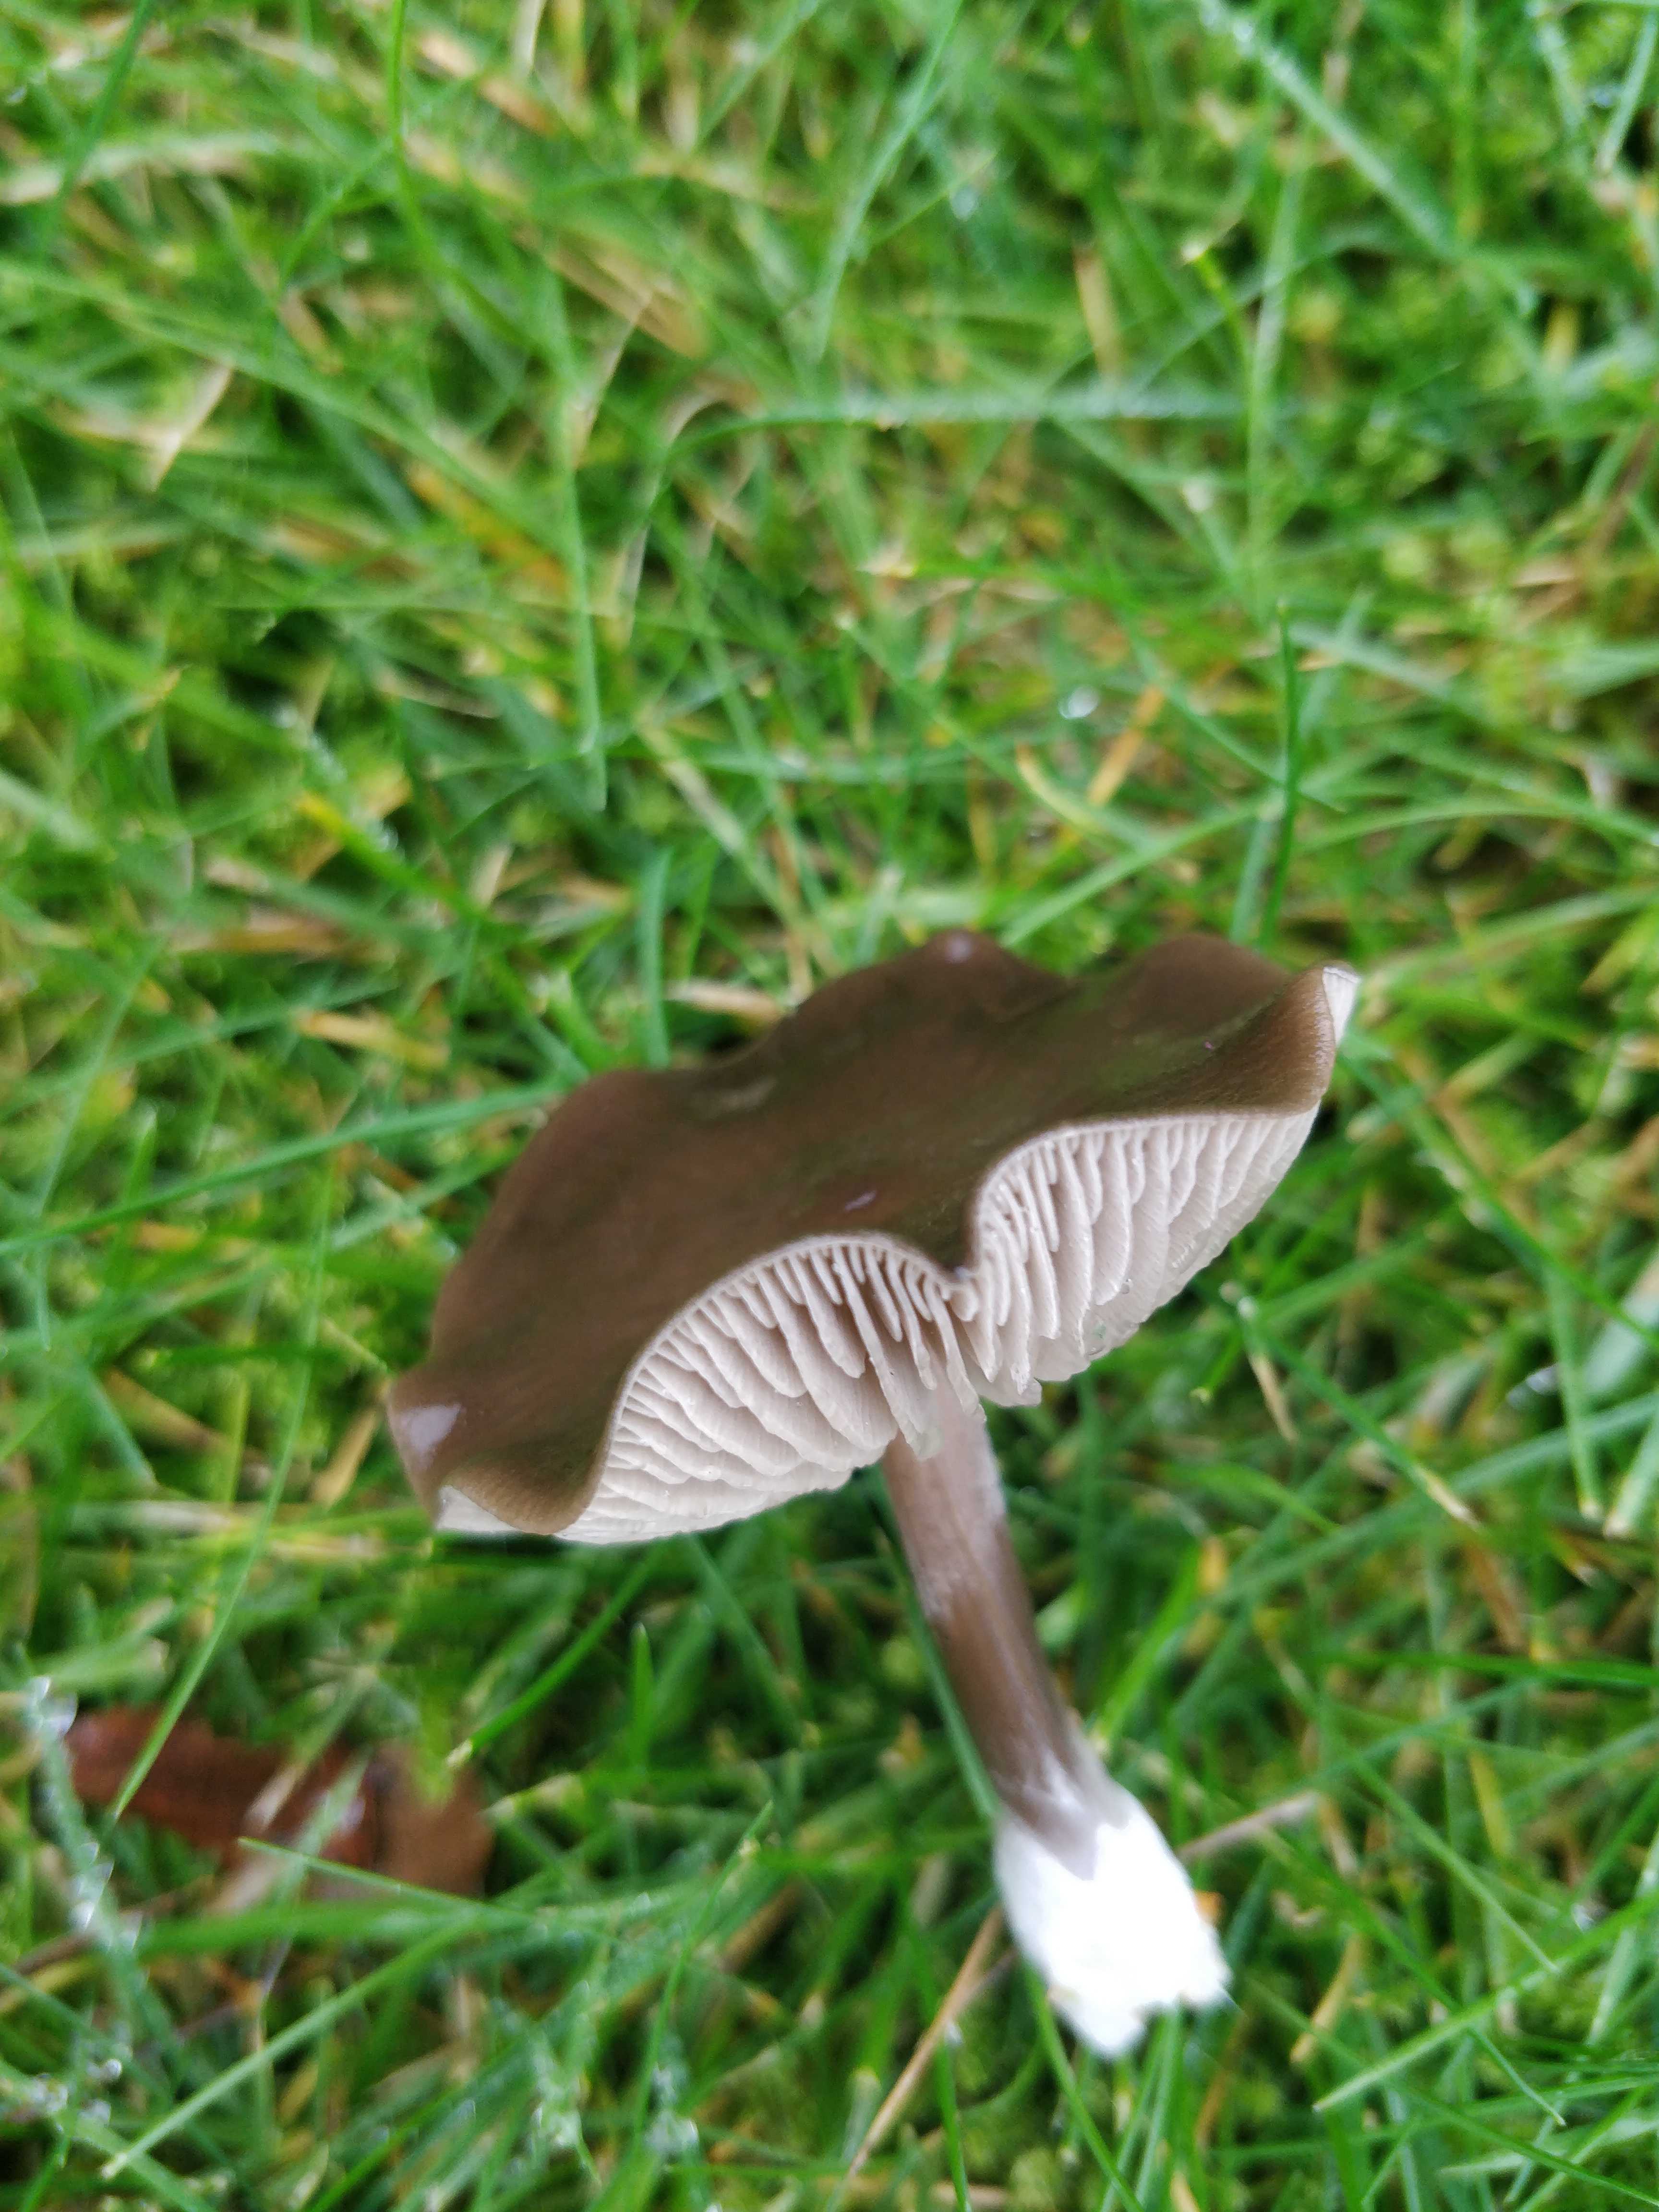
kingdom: Fungi
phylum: Basidiomycota
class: Agaricomycetes
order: Agaricales
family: Entolomataceae
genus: Entoloma
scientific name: Entoloma sericeum
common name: silkeglinsende rødblad
